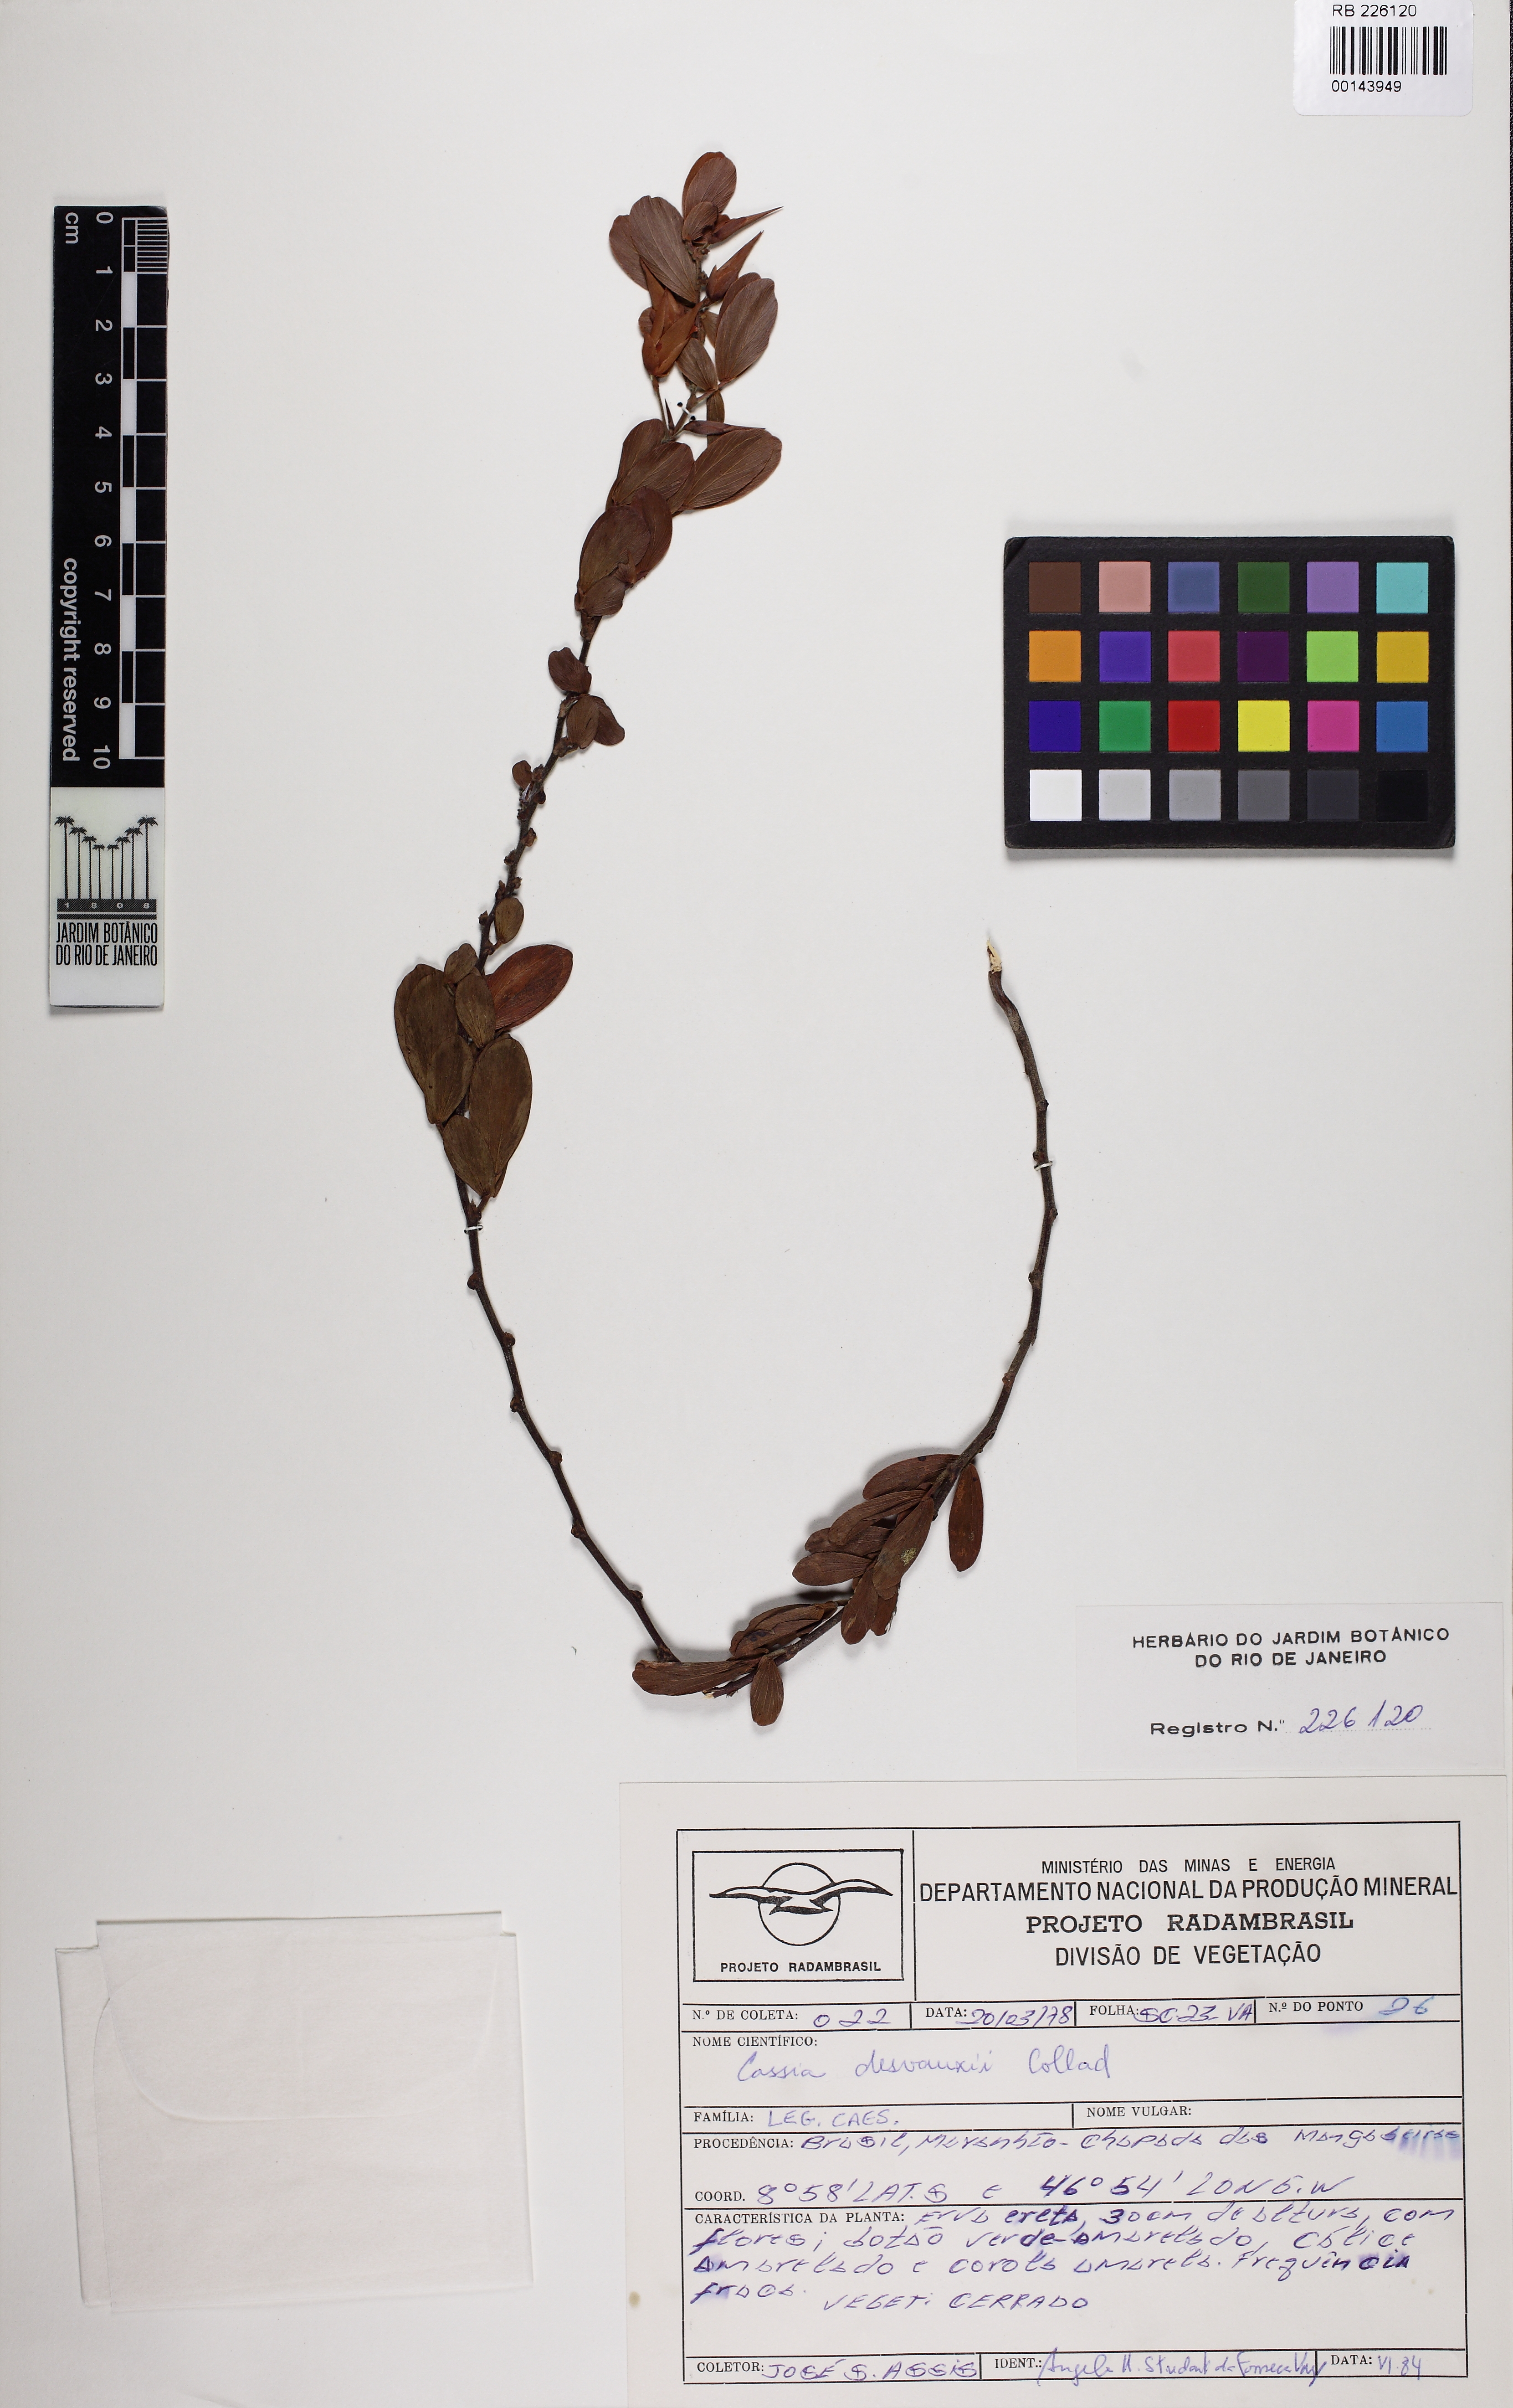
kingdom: Plantae
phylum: Tracheophyta
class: Magnoliopsida
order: Fabales
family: Fabaceae
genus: Chamaecrista
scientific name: Chamaecrista desvauxii
